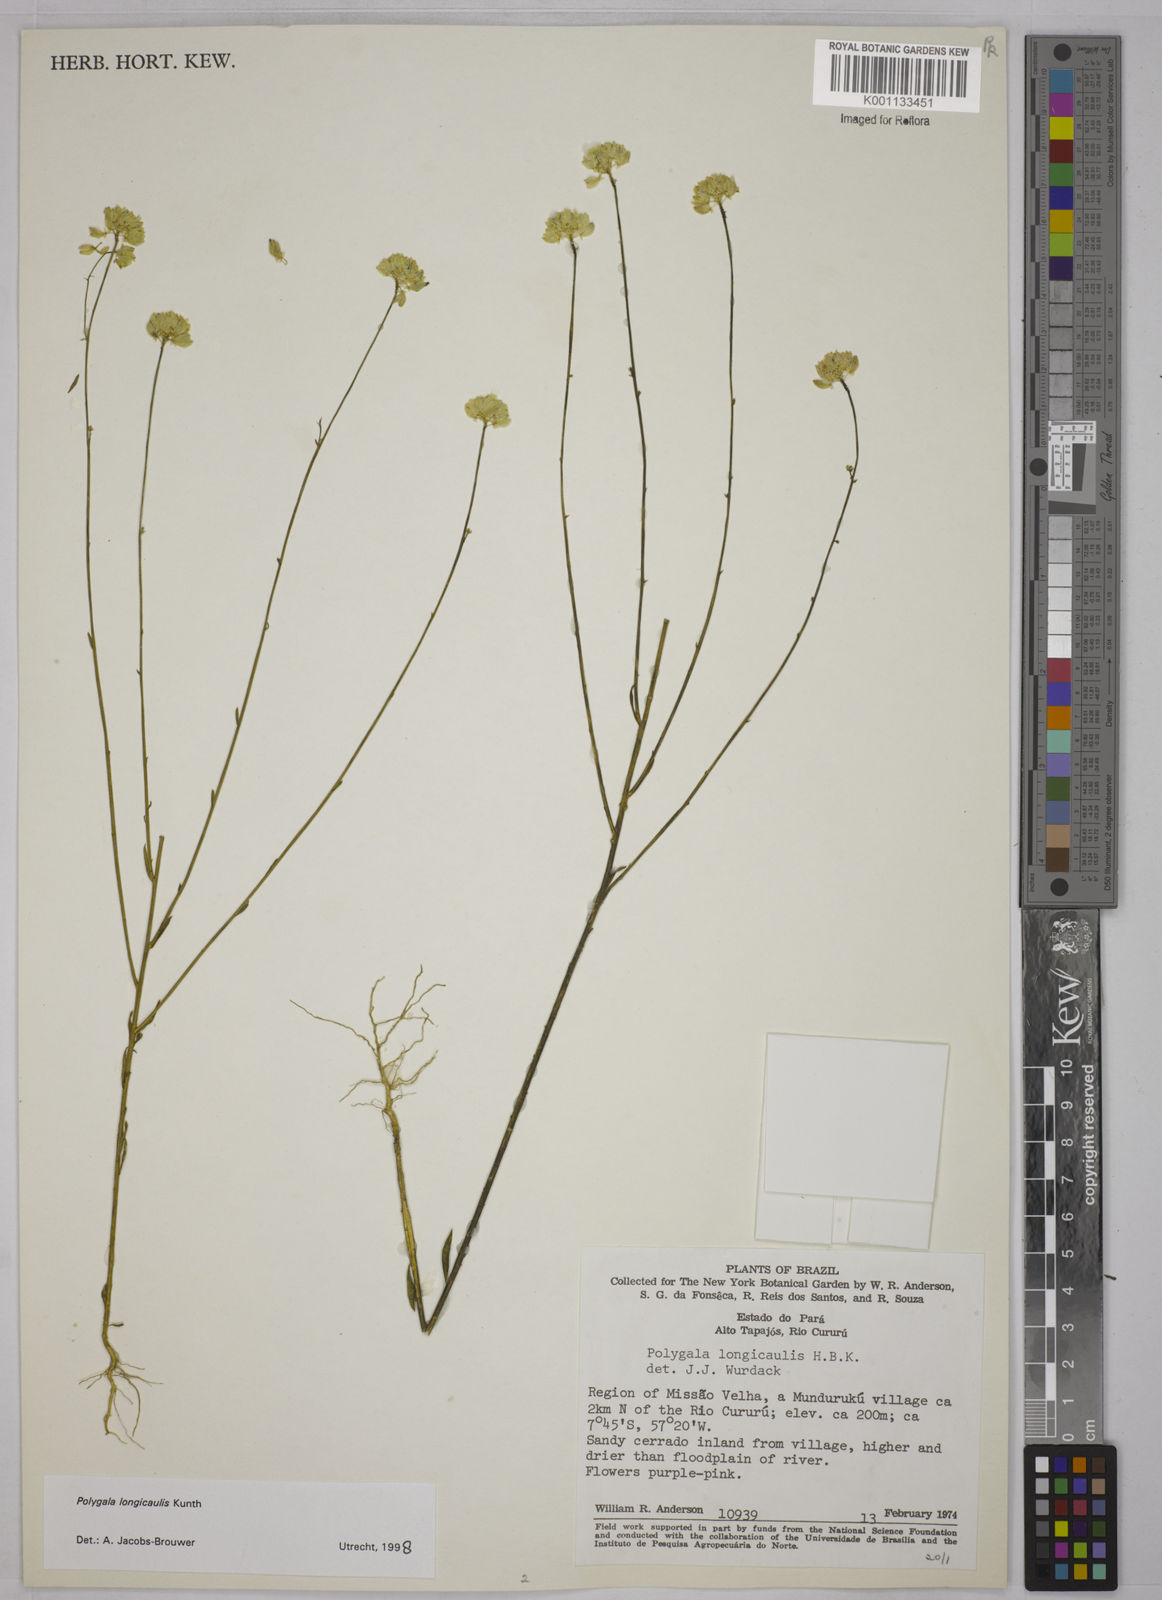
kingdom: Plantae
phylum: Tracheophyta
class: Magnoliopsida
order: Fabales
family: Polygalaceae
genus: Polygala
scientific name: Polygala longicaulis
